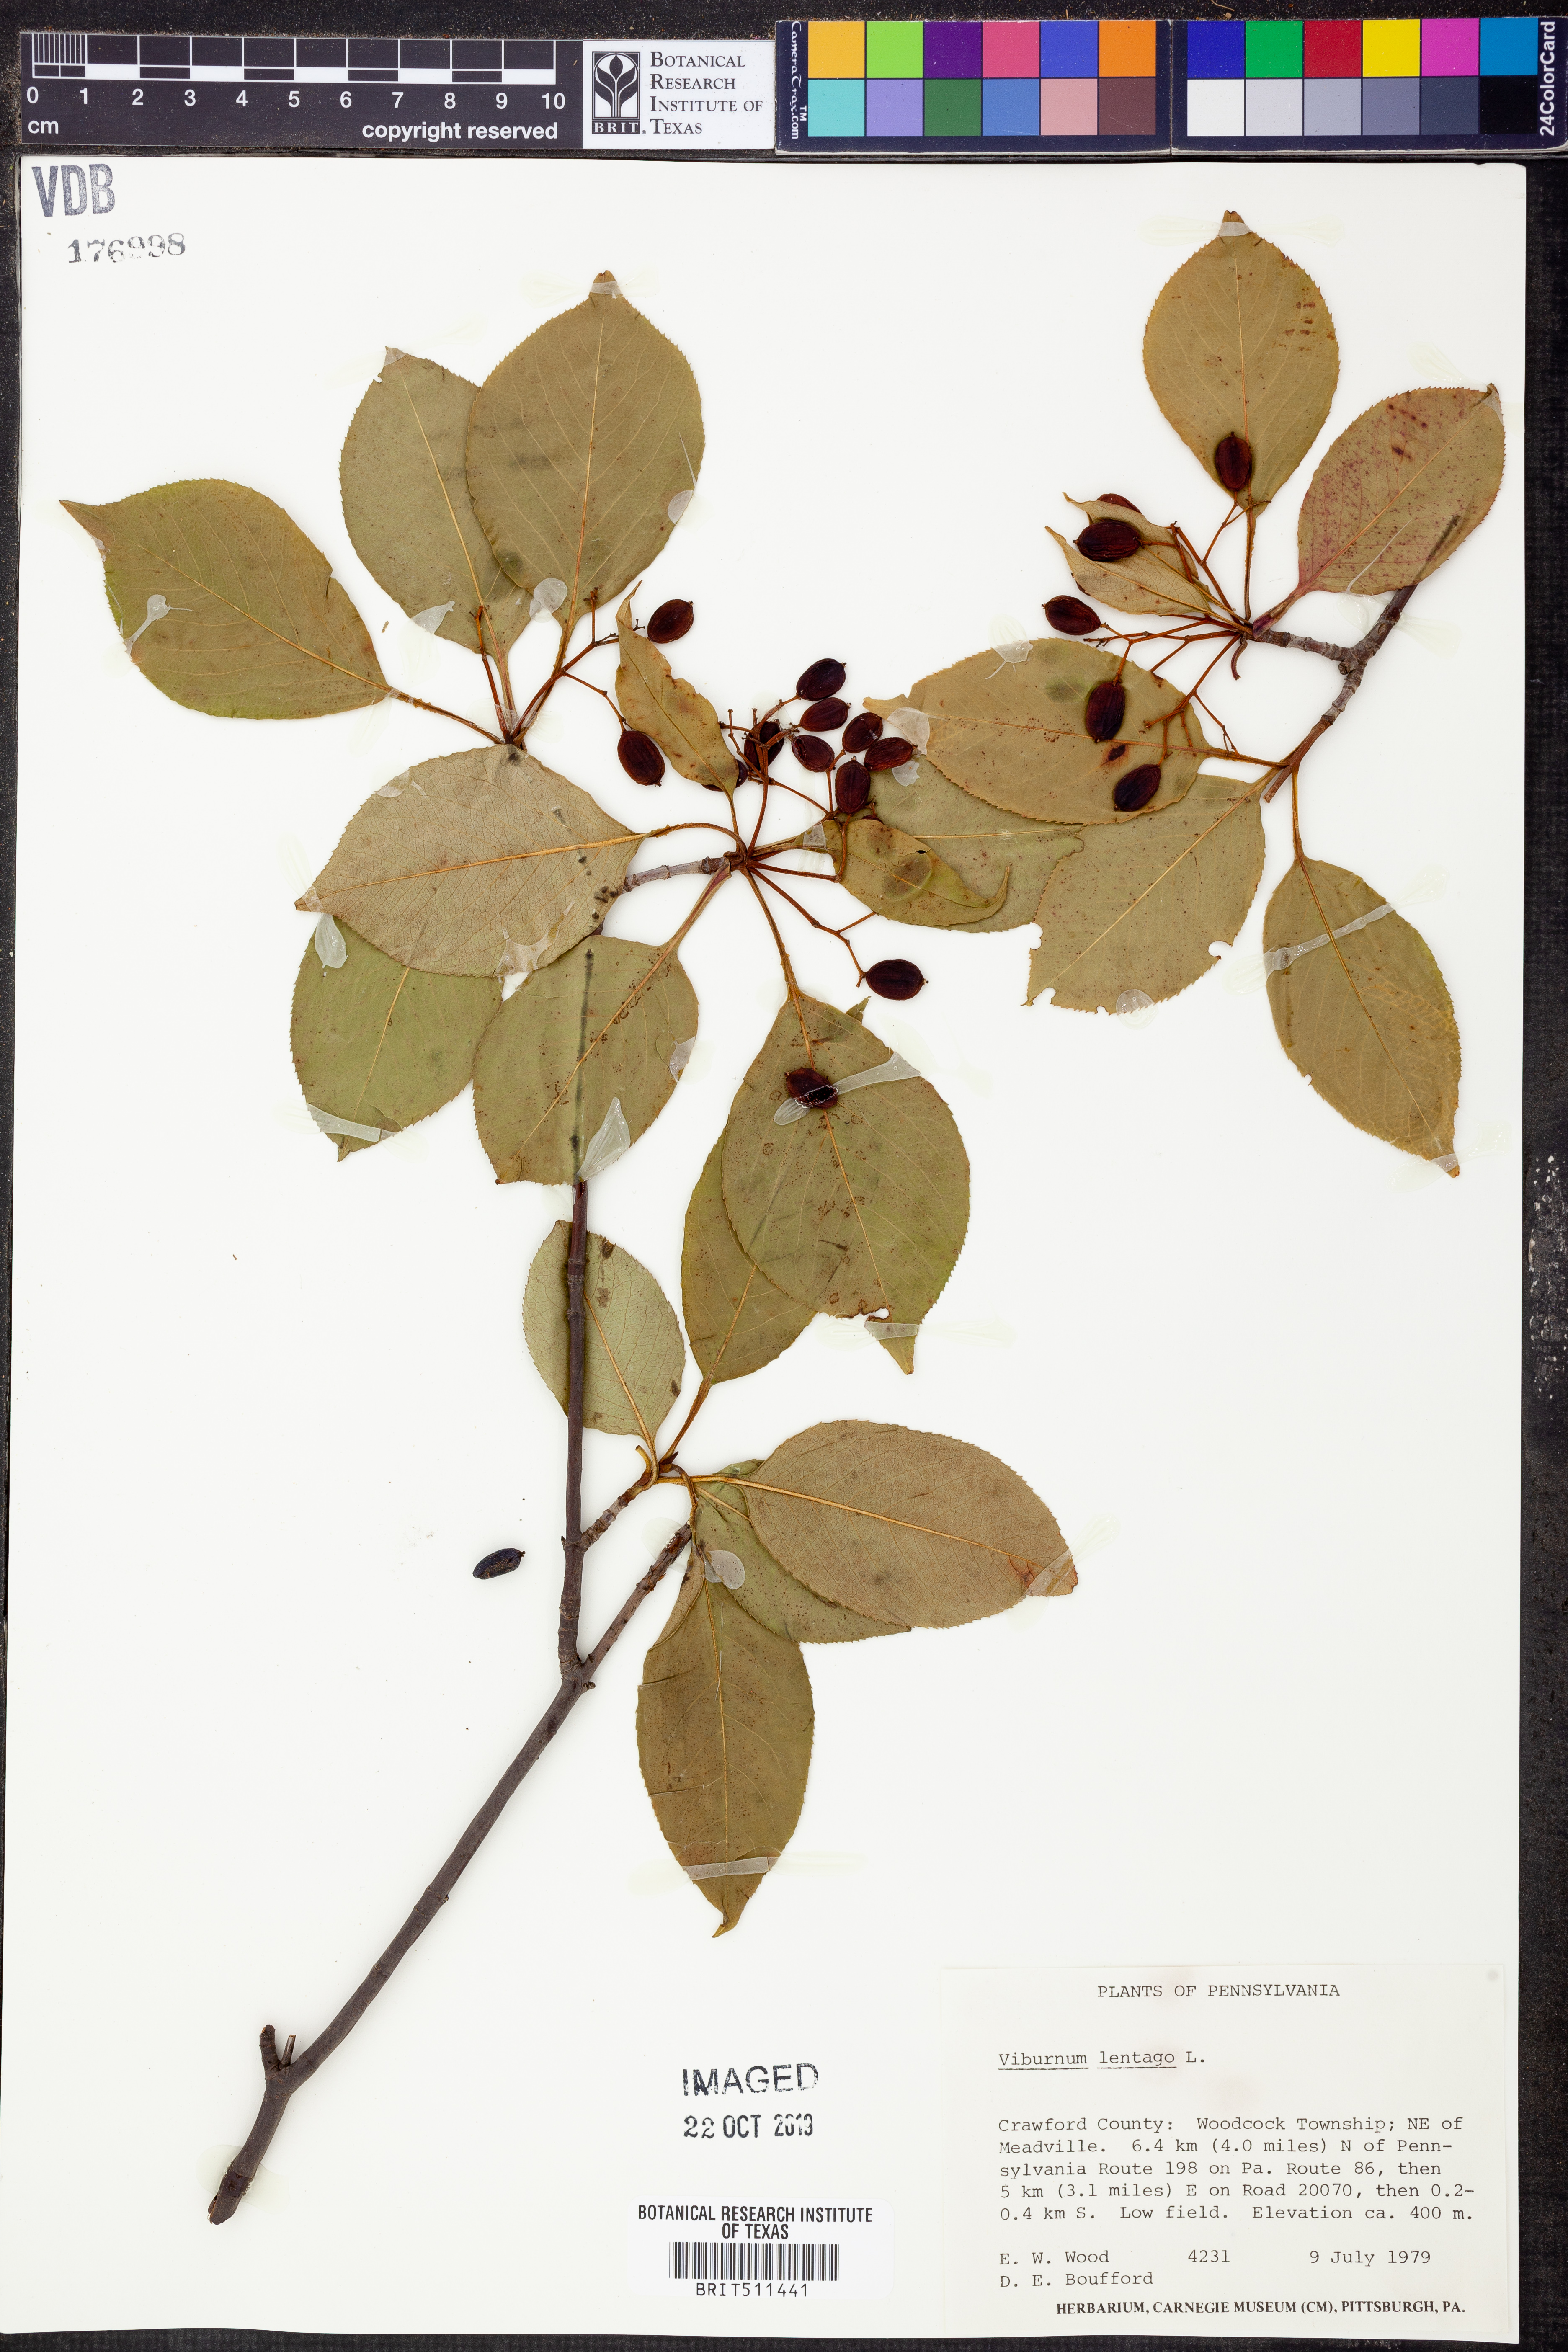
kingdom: Plantae
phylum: Tracheophyta
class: Magnoliopsida
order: Dipsacales
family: Viburnaceae
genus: Viburnum
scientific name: Viburnum lentago
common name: Black haw
